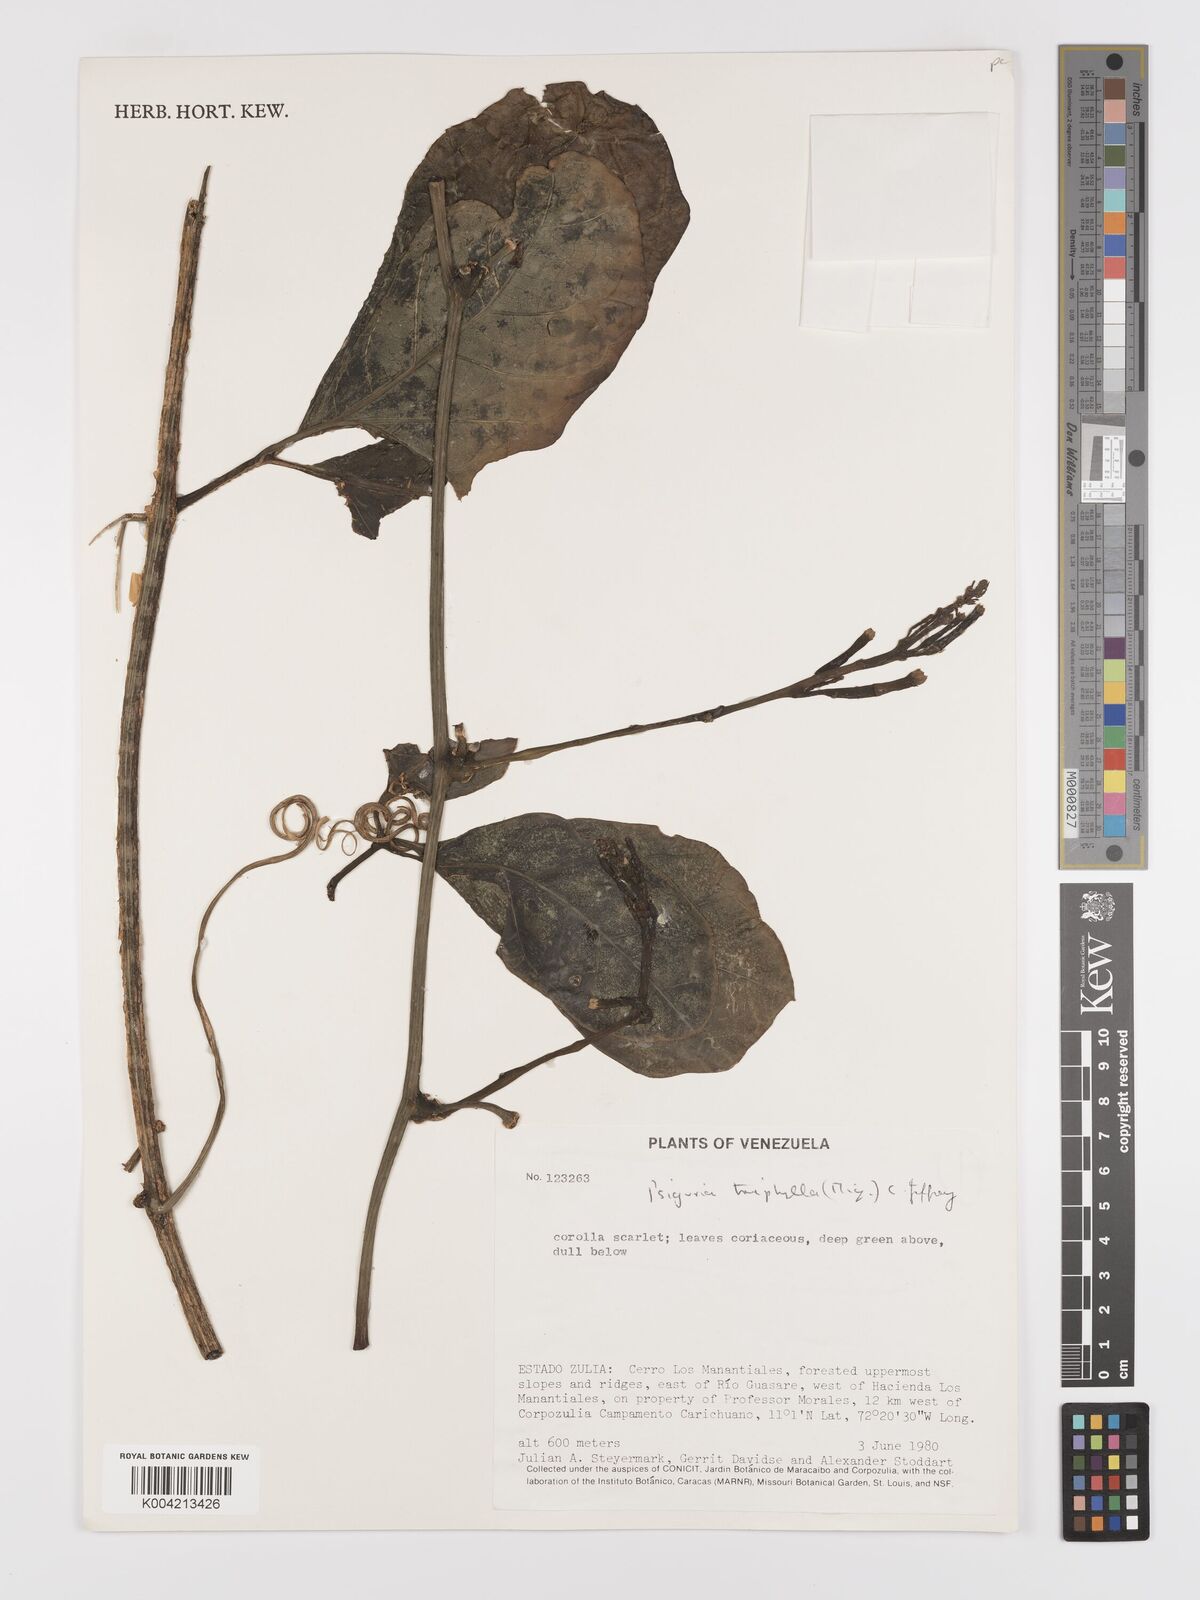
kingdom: Plantae
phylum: Tracheophyta
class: Magnoliopsida
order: Cucurbitales
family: Cucurbitaceae
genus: Psiguria
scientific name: Psiguria triphylla
